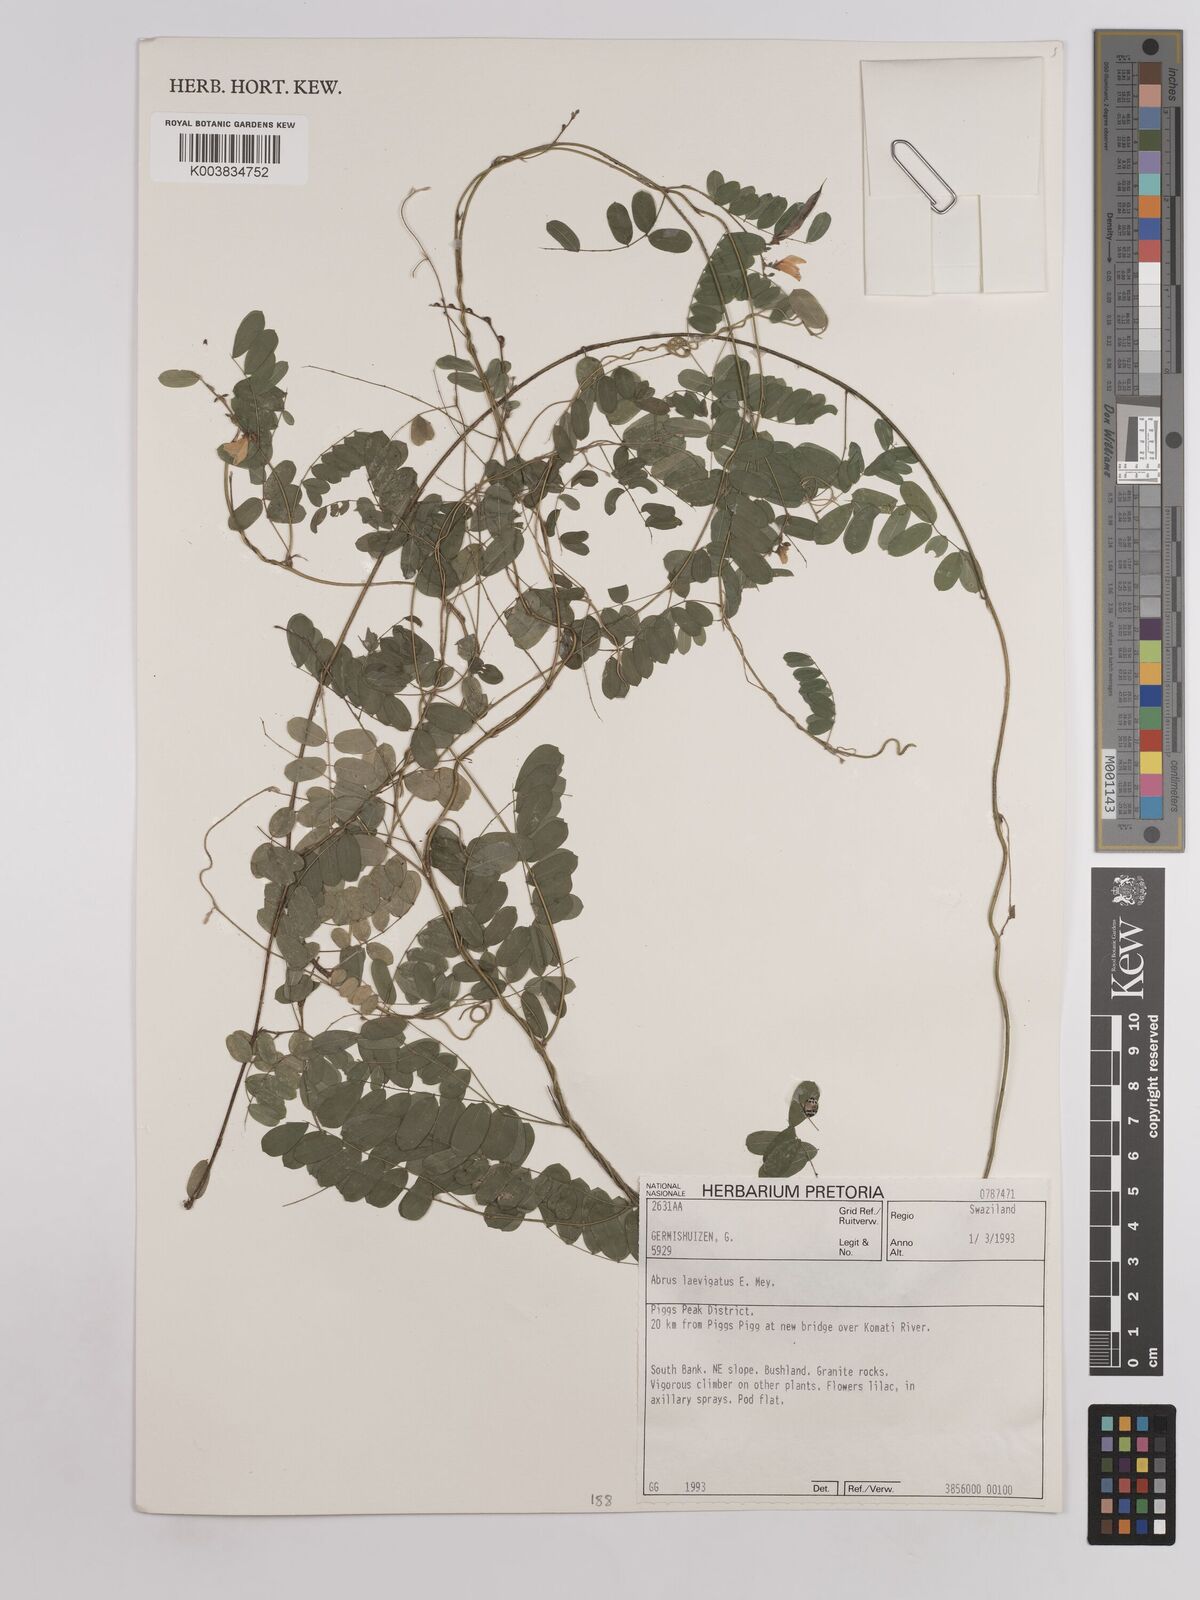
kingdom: Plantae
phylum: Tracheophyta
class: Magnoliopsida
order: Fabales
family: Fabaceae
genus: Abrus
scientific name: Abrus laevigatus
